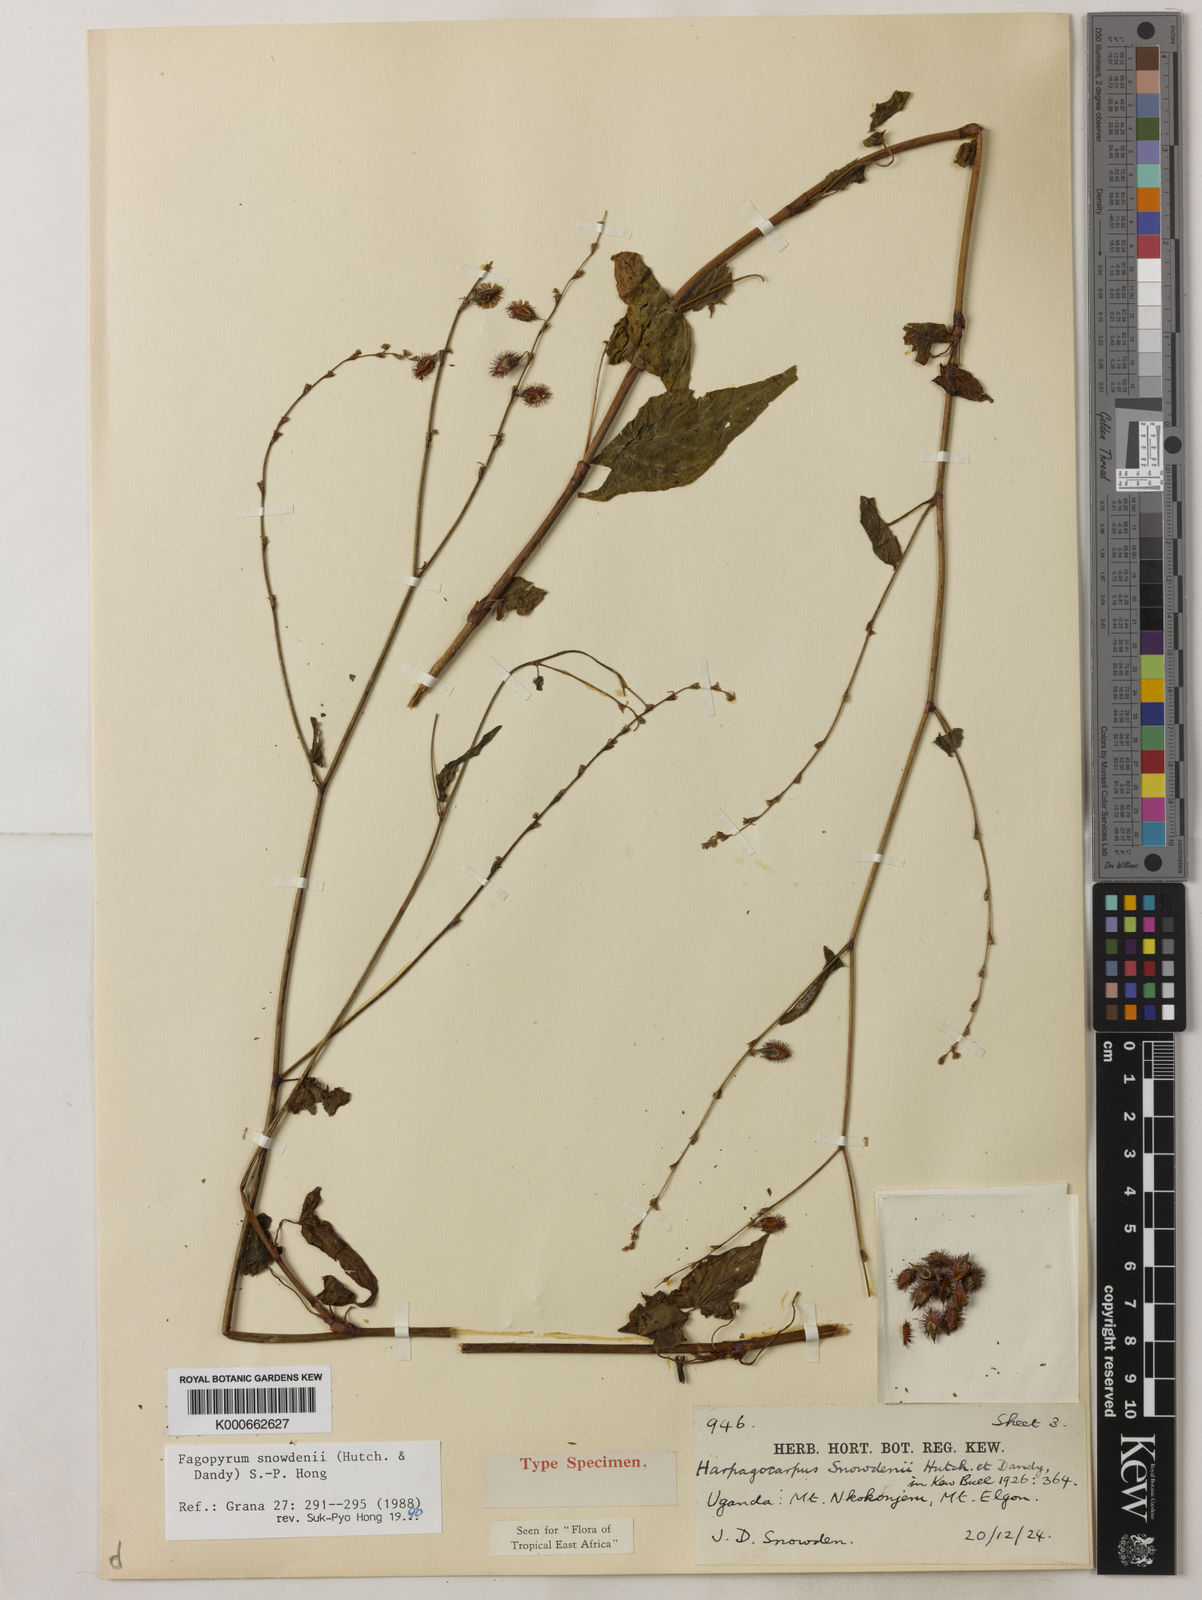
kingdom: Plantae
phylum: Tracheophyta
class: Magnoliopsida
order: Caryophyllales
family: Polygonaceae
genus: Harpagocarpus
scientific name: Harpagocarpus snowdenii
